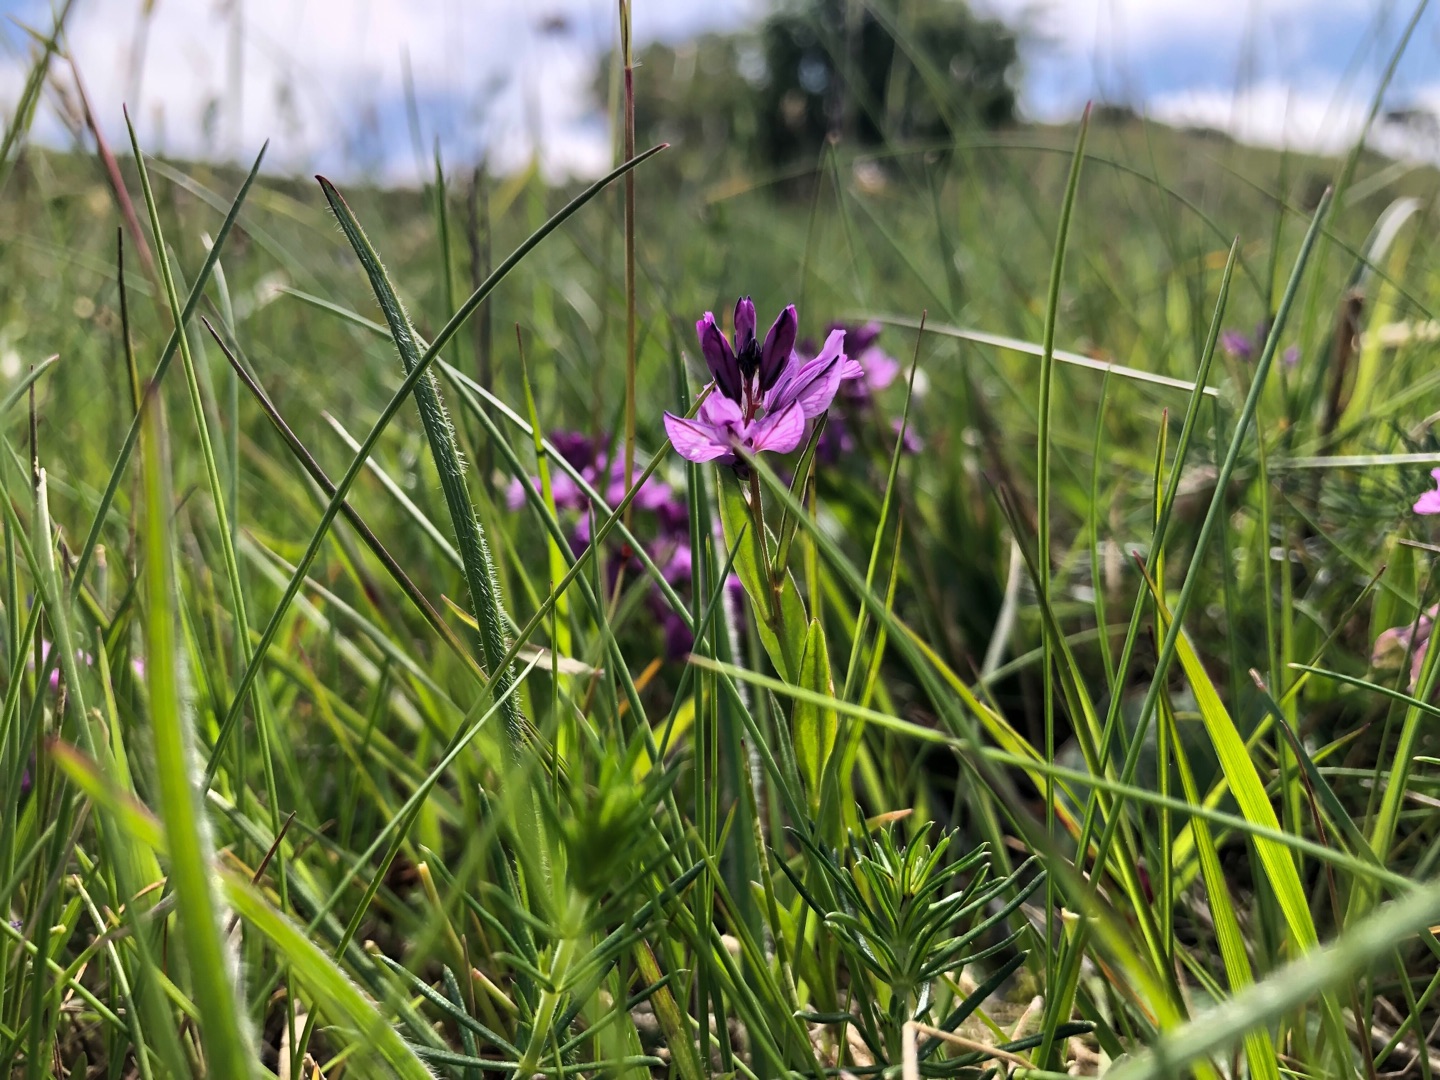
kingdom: Plantae
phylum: Tracheophyta
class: Magnoliopsida
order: Fabales
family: Polygalaceae
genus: Polygala
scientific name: Polygala vulgaris
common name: Almindelig mælkeurt
